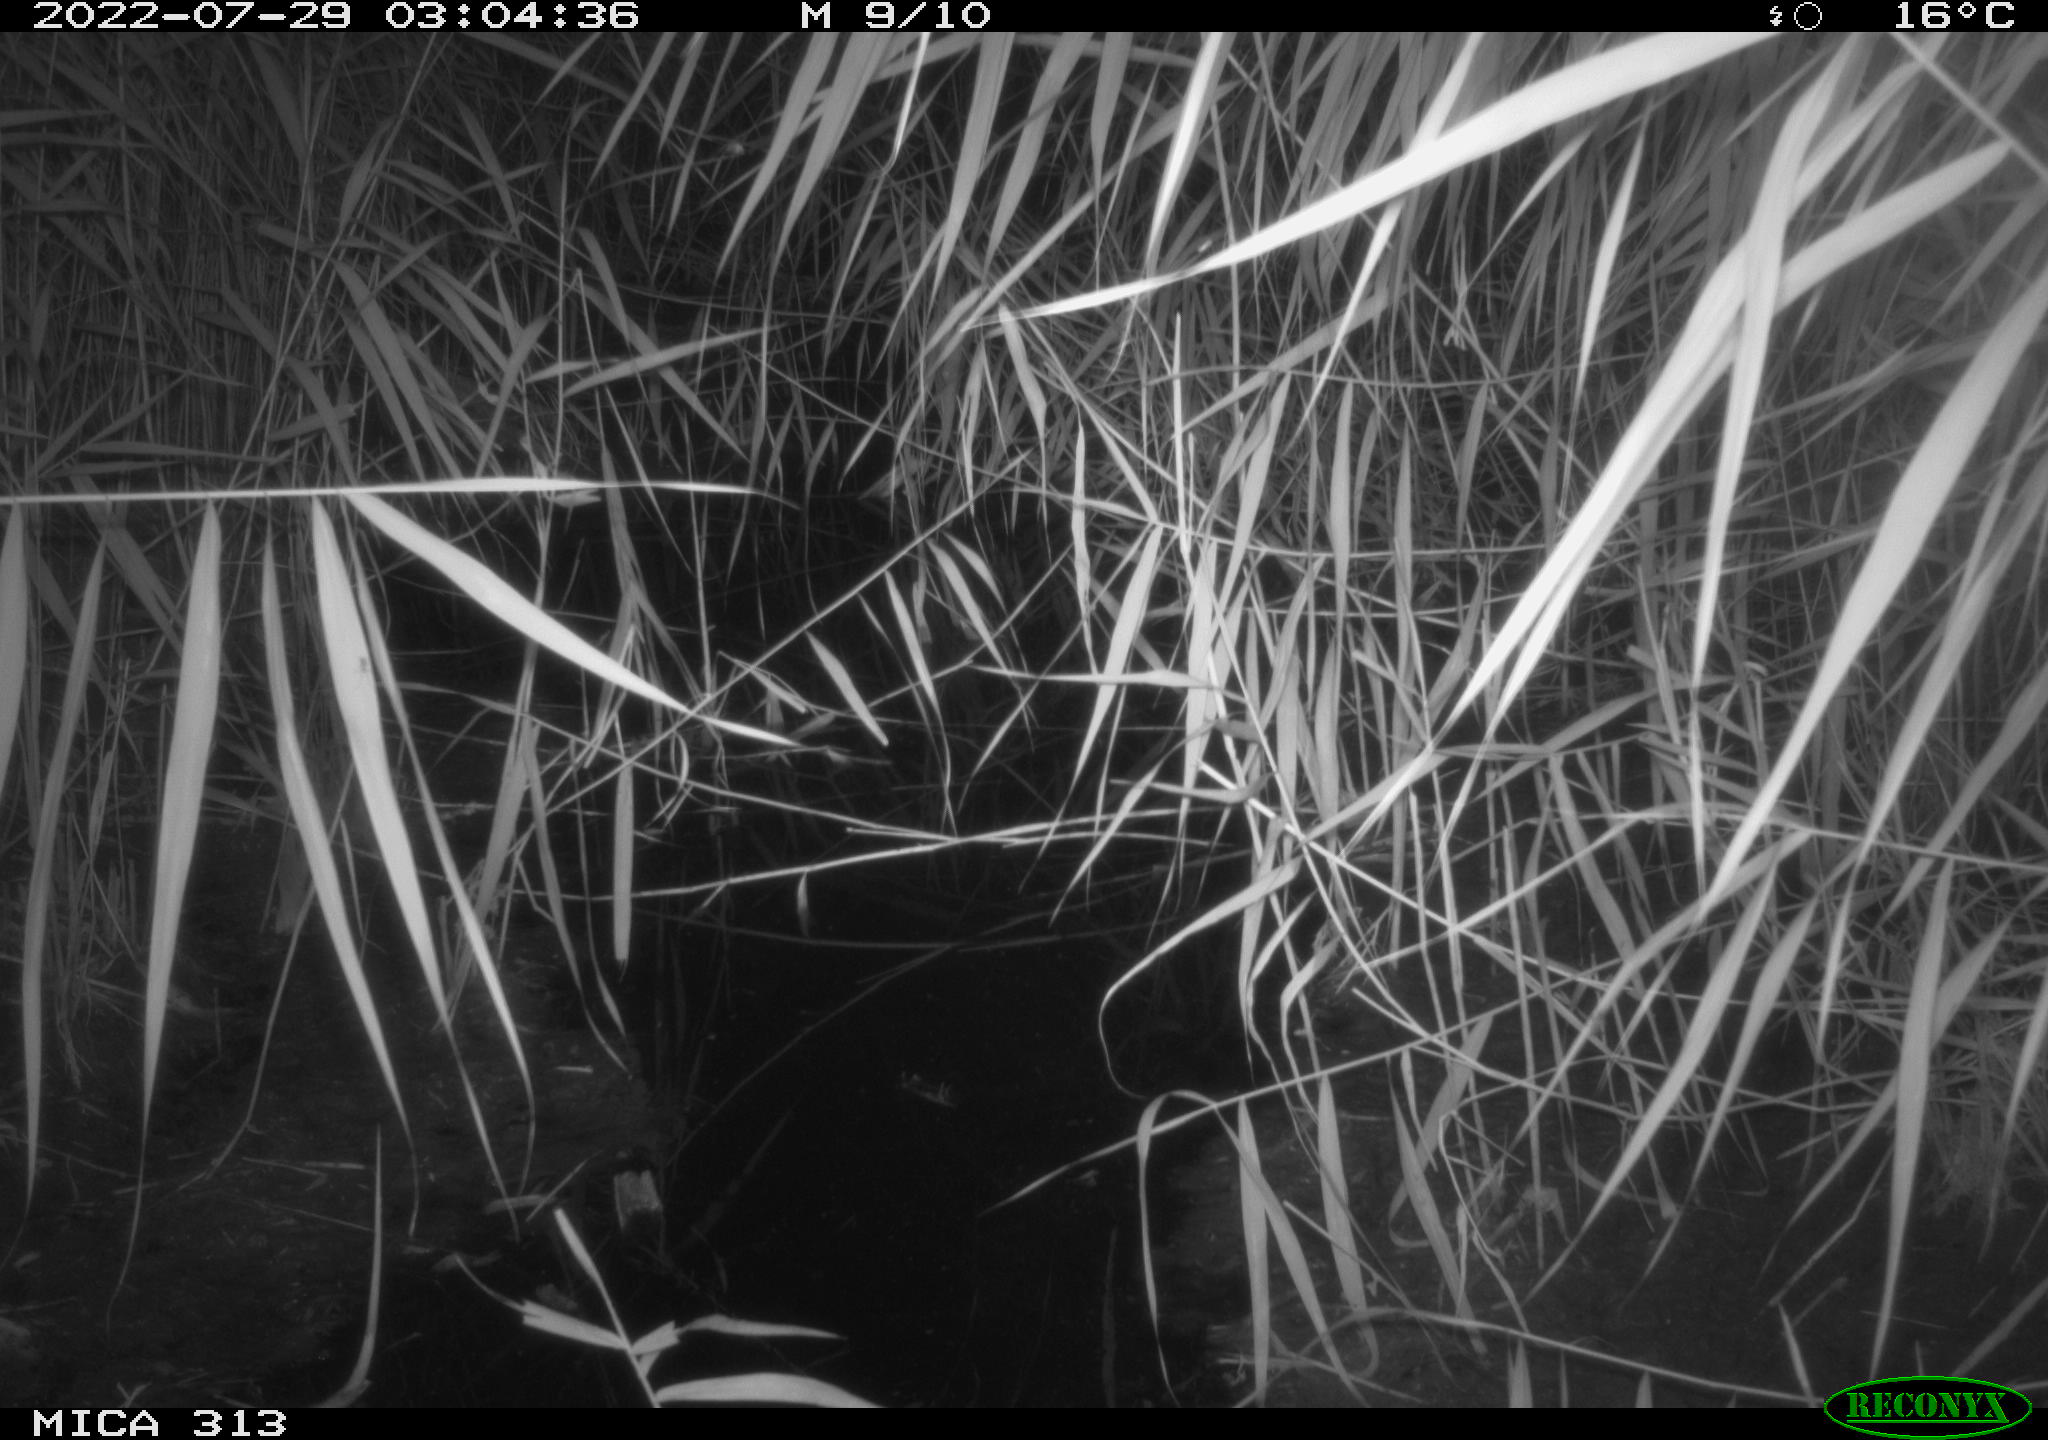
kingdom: Animalia
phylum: Chordata
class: Mammalia
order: Rodentia
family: Muridae
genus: Rattus
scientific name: Rattus norvegicus
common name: Brown rat
